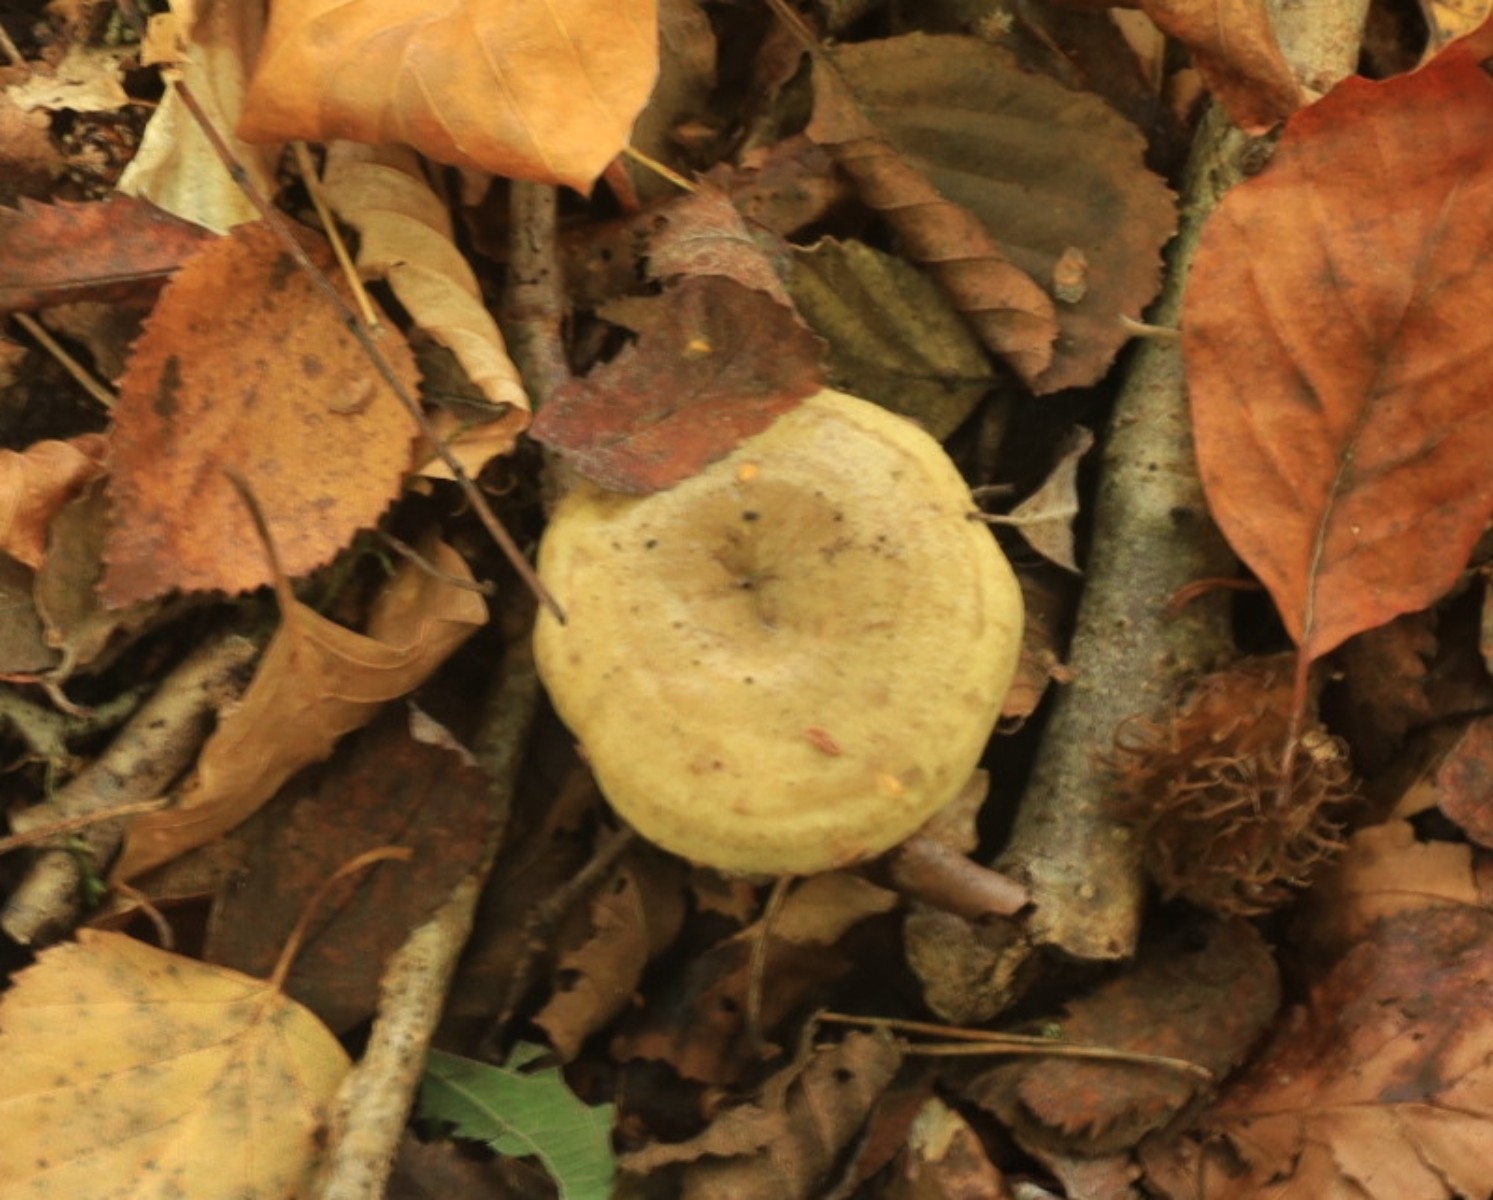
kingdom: Fungi
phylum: Basidiomycota
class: Agaricomycetes
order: Russulales
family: Russulaceae
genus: Lactarius
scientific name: Lactarius blennius
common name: dråbeplettet mælkehat
